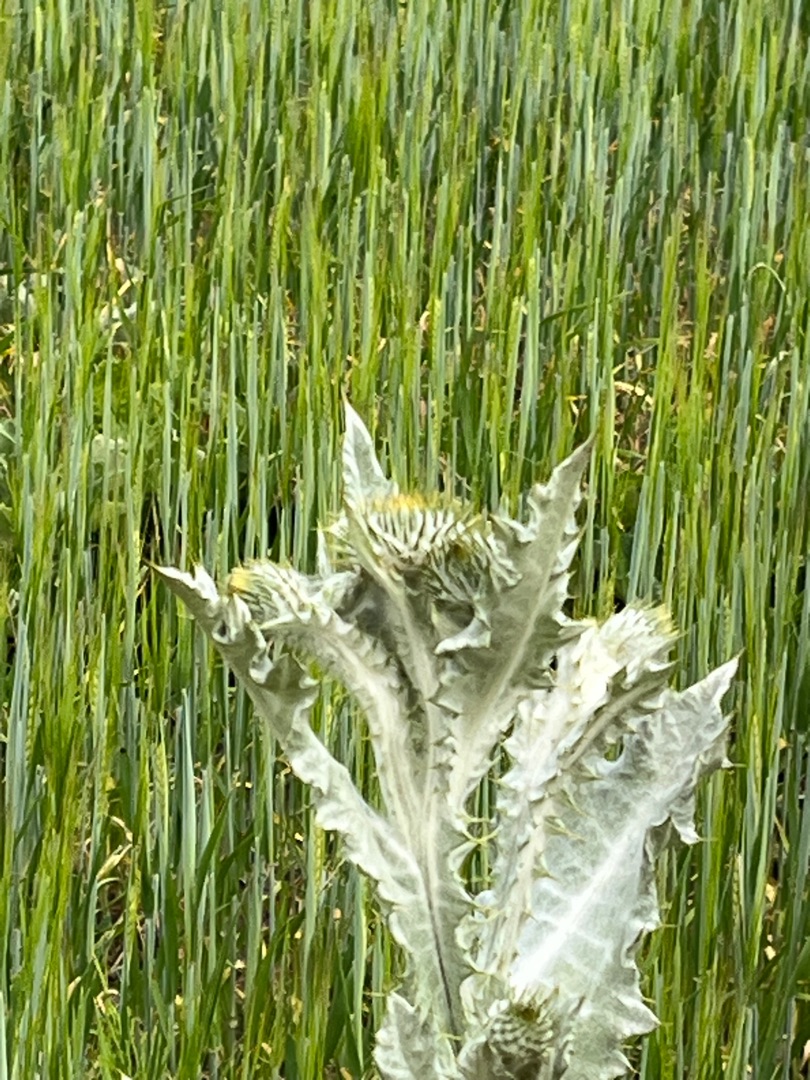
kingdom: Plantae
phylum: Tracheophyta
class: Magnoliopsida
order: Asterales
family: Asteraceae
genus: Onopordum
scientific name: Onopordum acanthium
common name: Æselfoder
